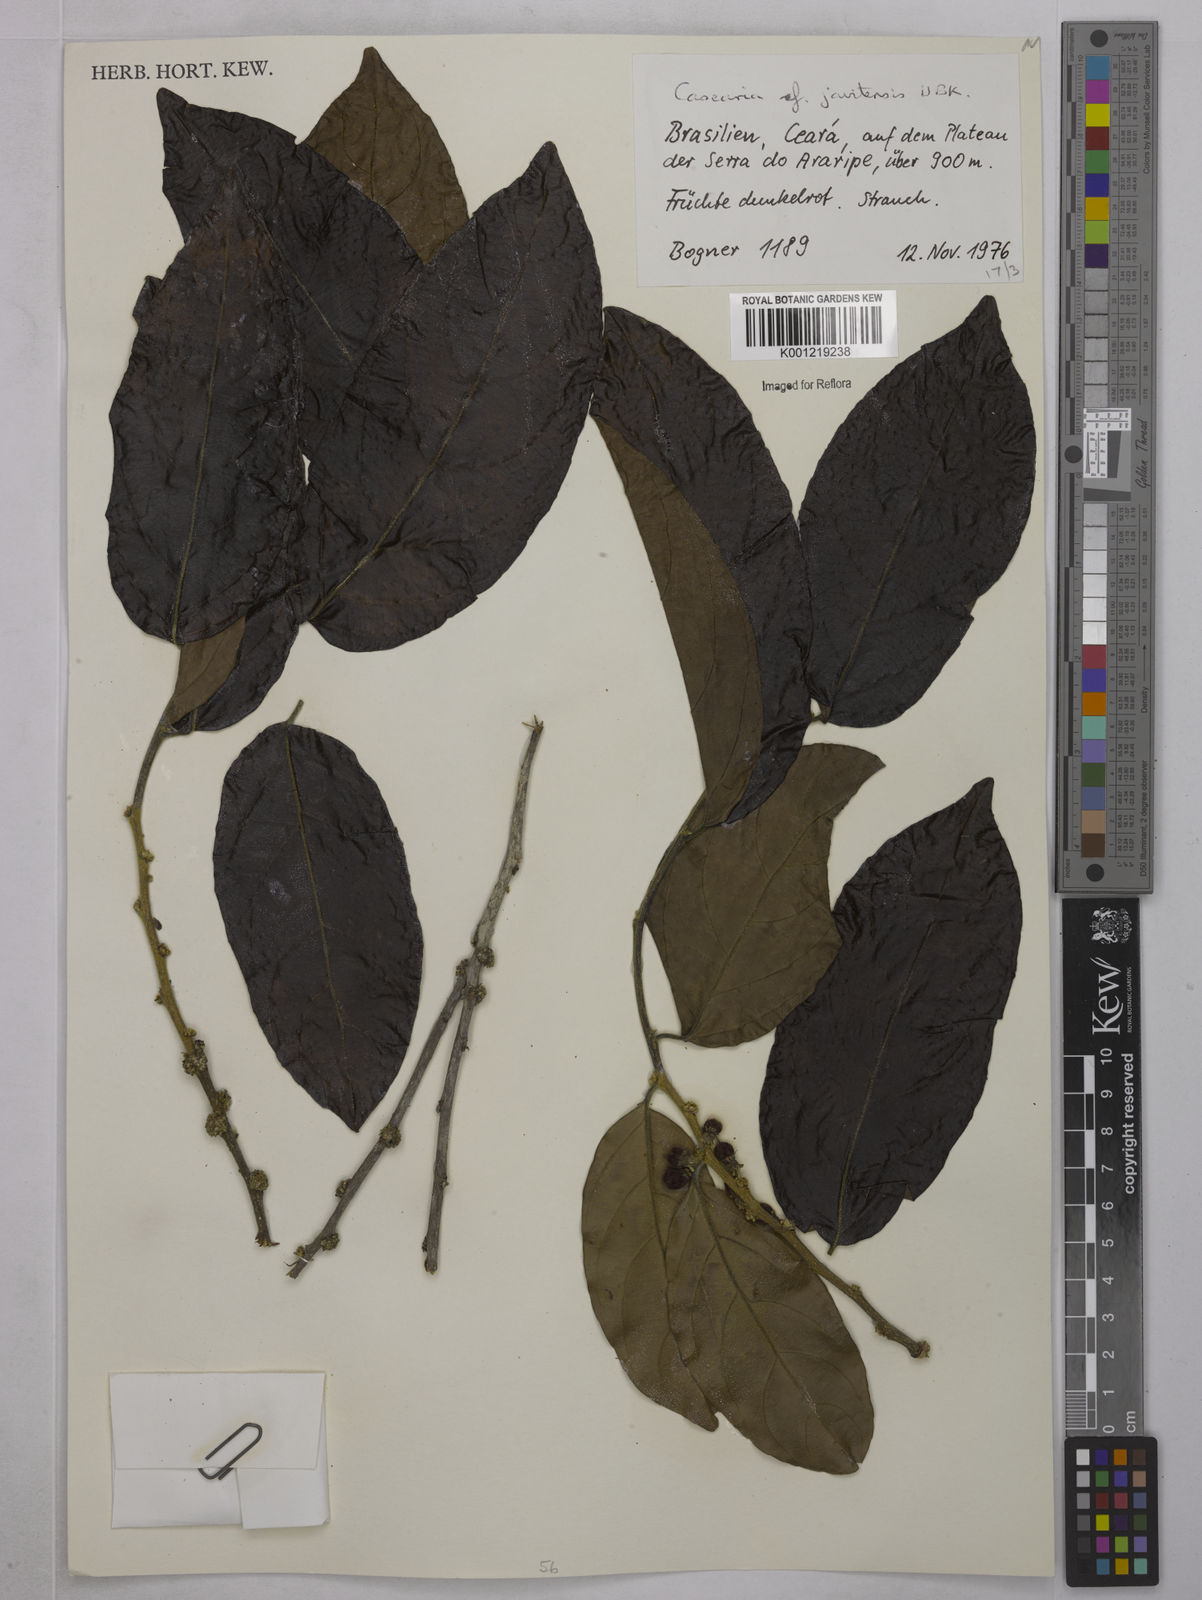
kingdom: Plantae
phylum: Tracheophyta
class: Magnoliopsida
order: Malpighiales
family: Salicaceae
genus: Piparea
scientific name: Piparea multiflora
